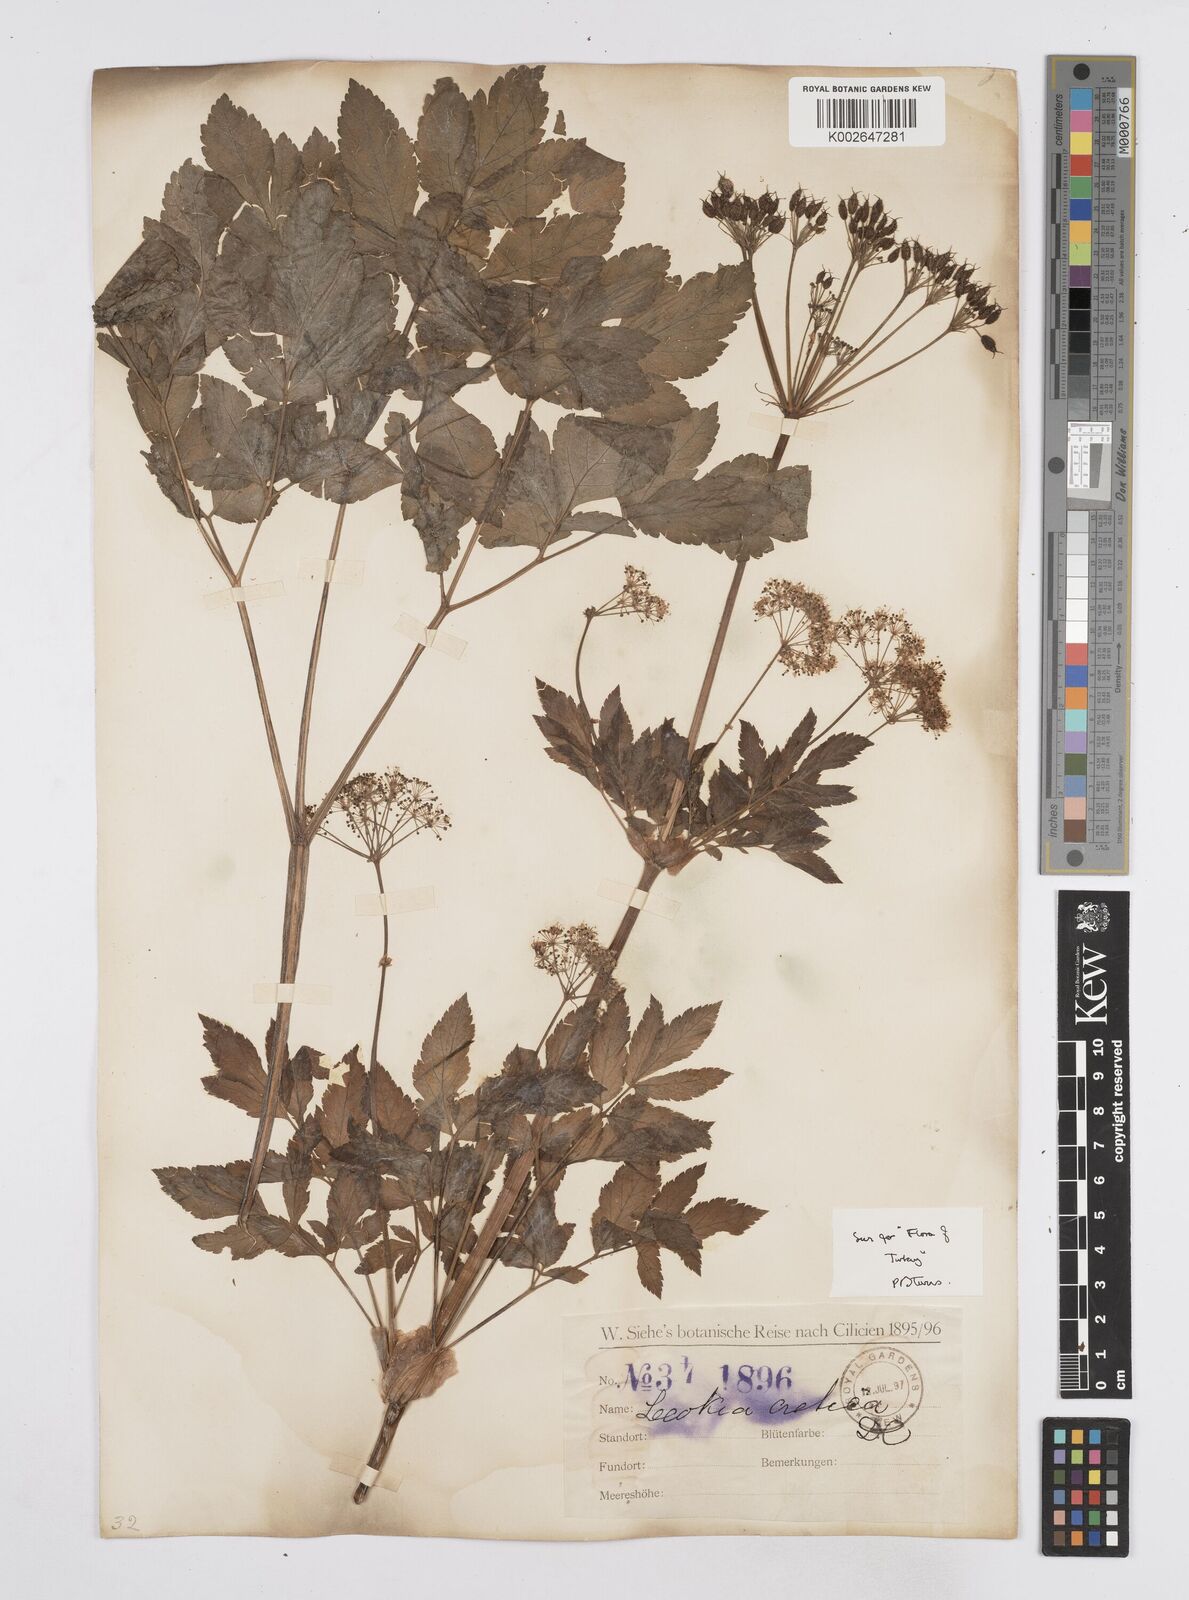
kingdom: Plantae
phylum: Tracheophyta
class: Magnoliopsida
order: Apiales
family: Apiaceae
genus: Lecokia
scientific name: Lecokia cretica
